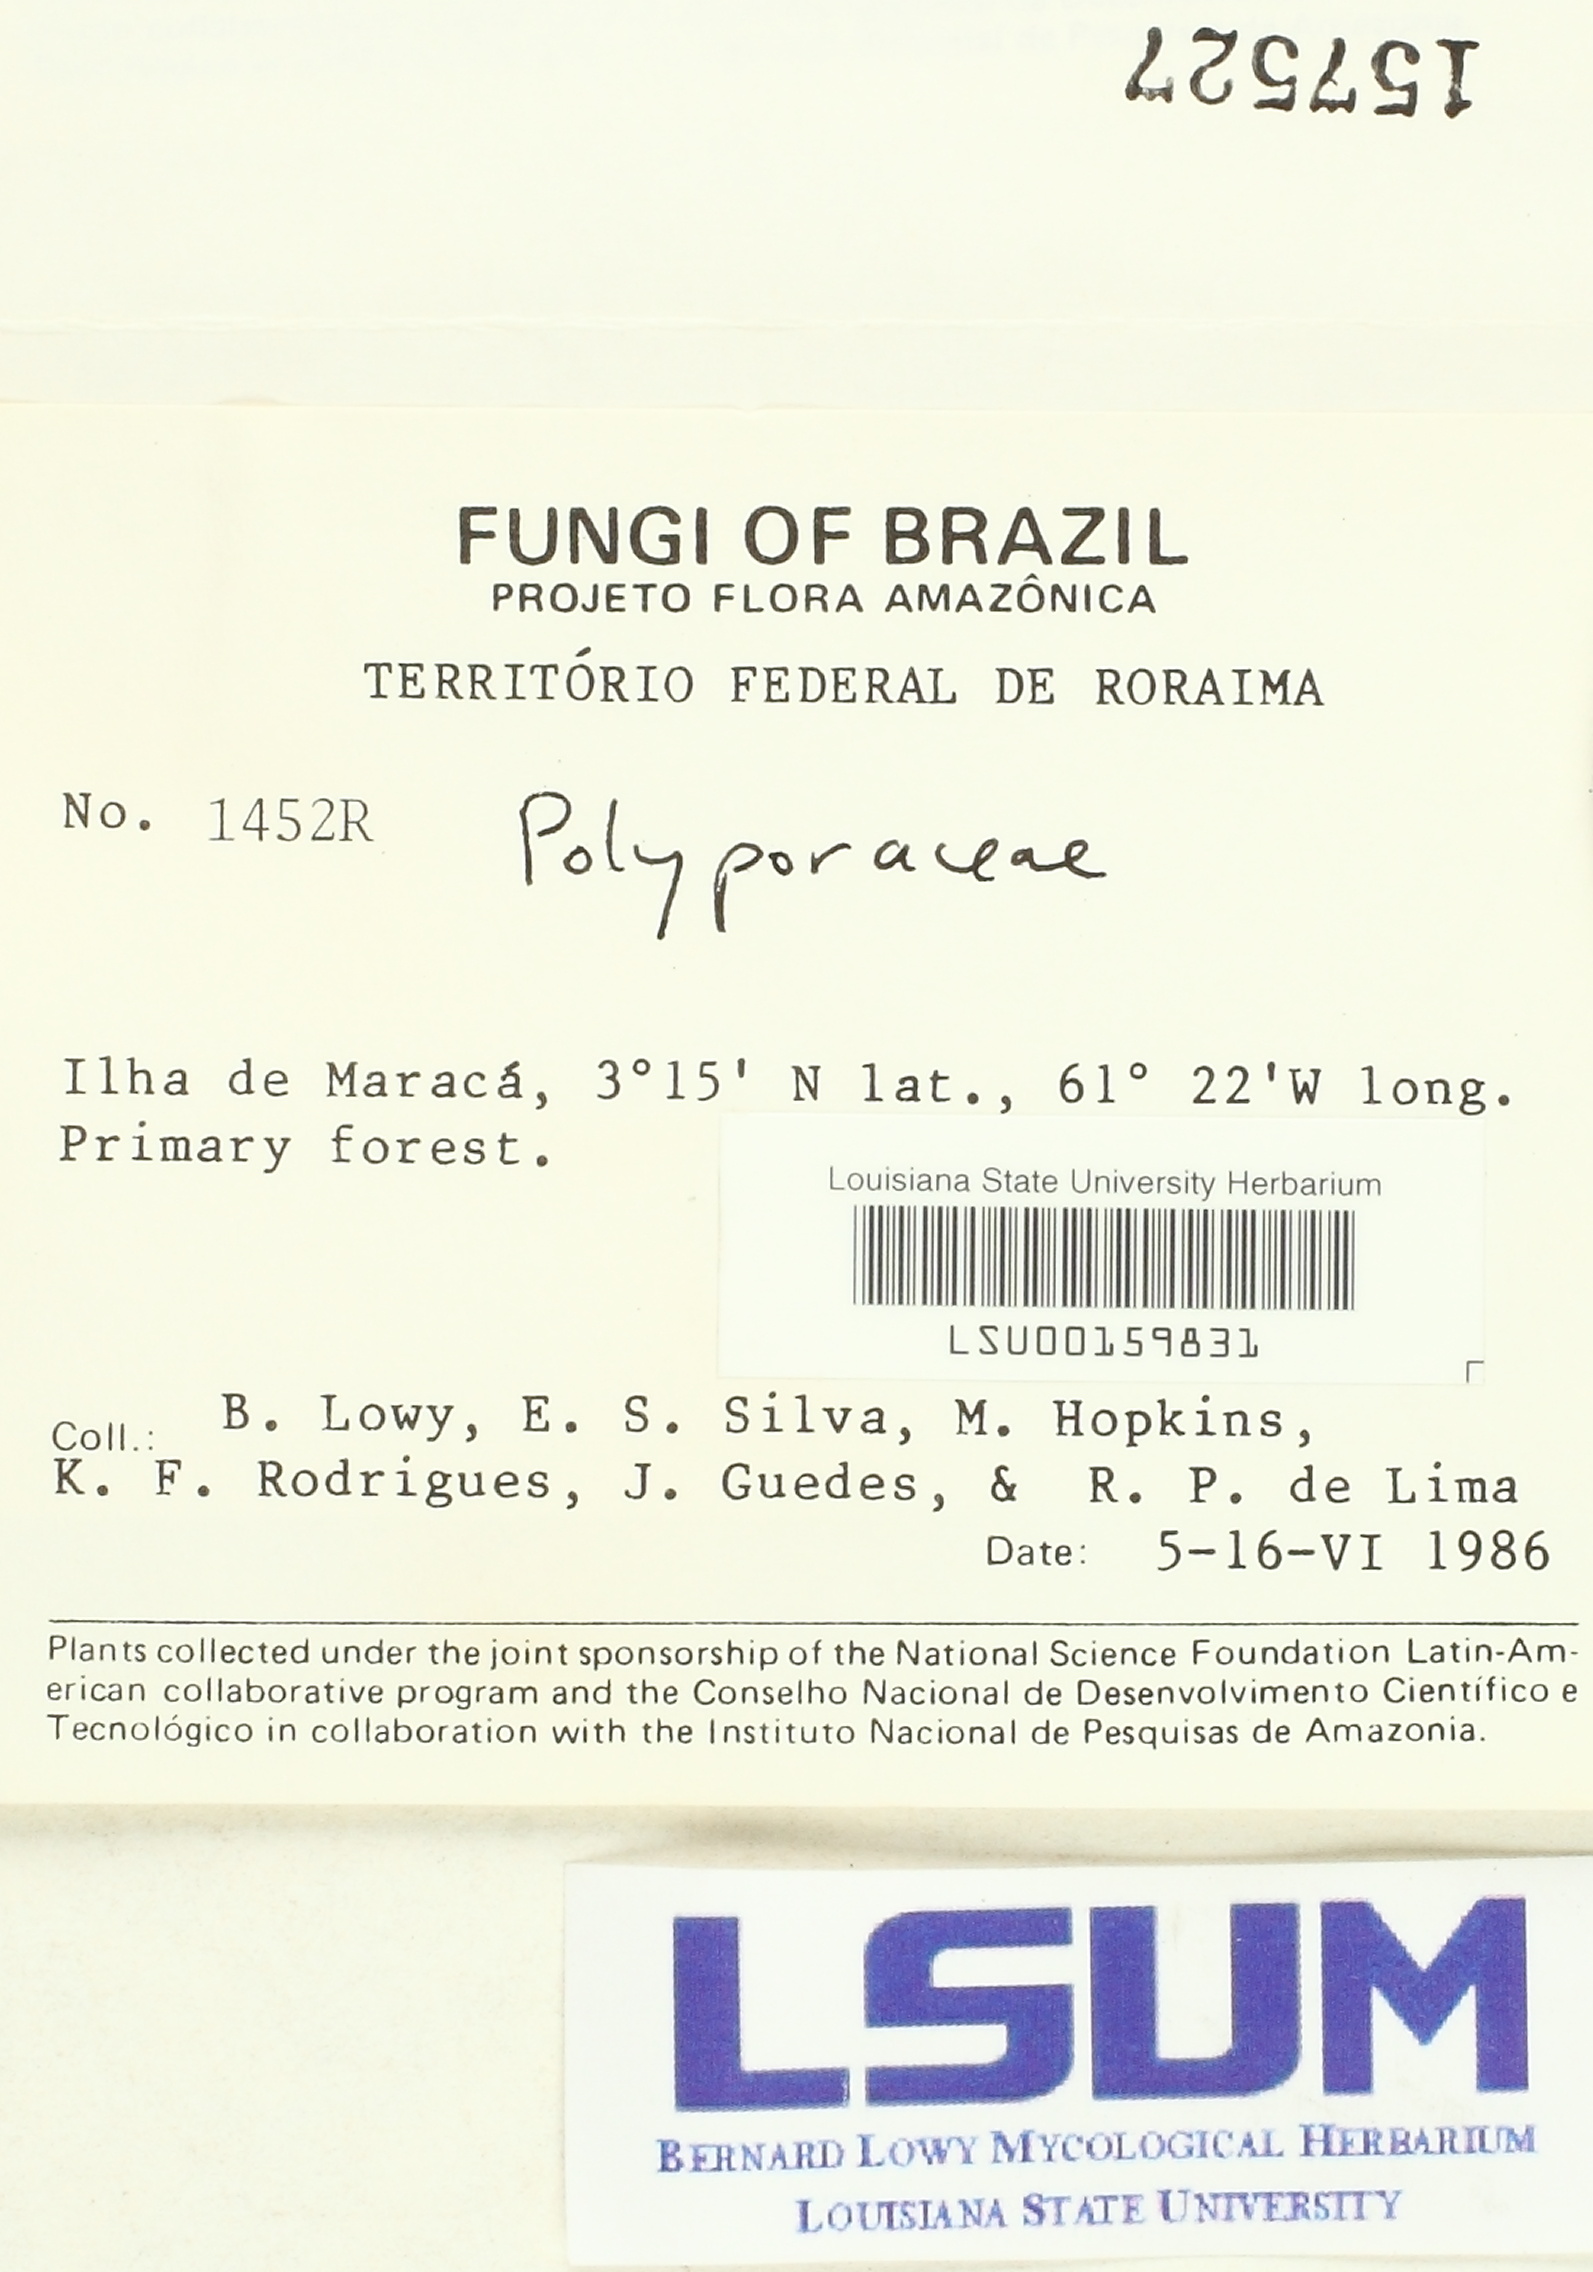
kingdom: Fungi
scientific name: Fungi
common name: Fungi
